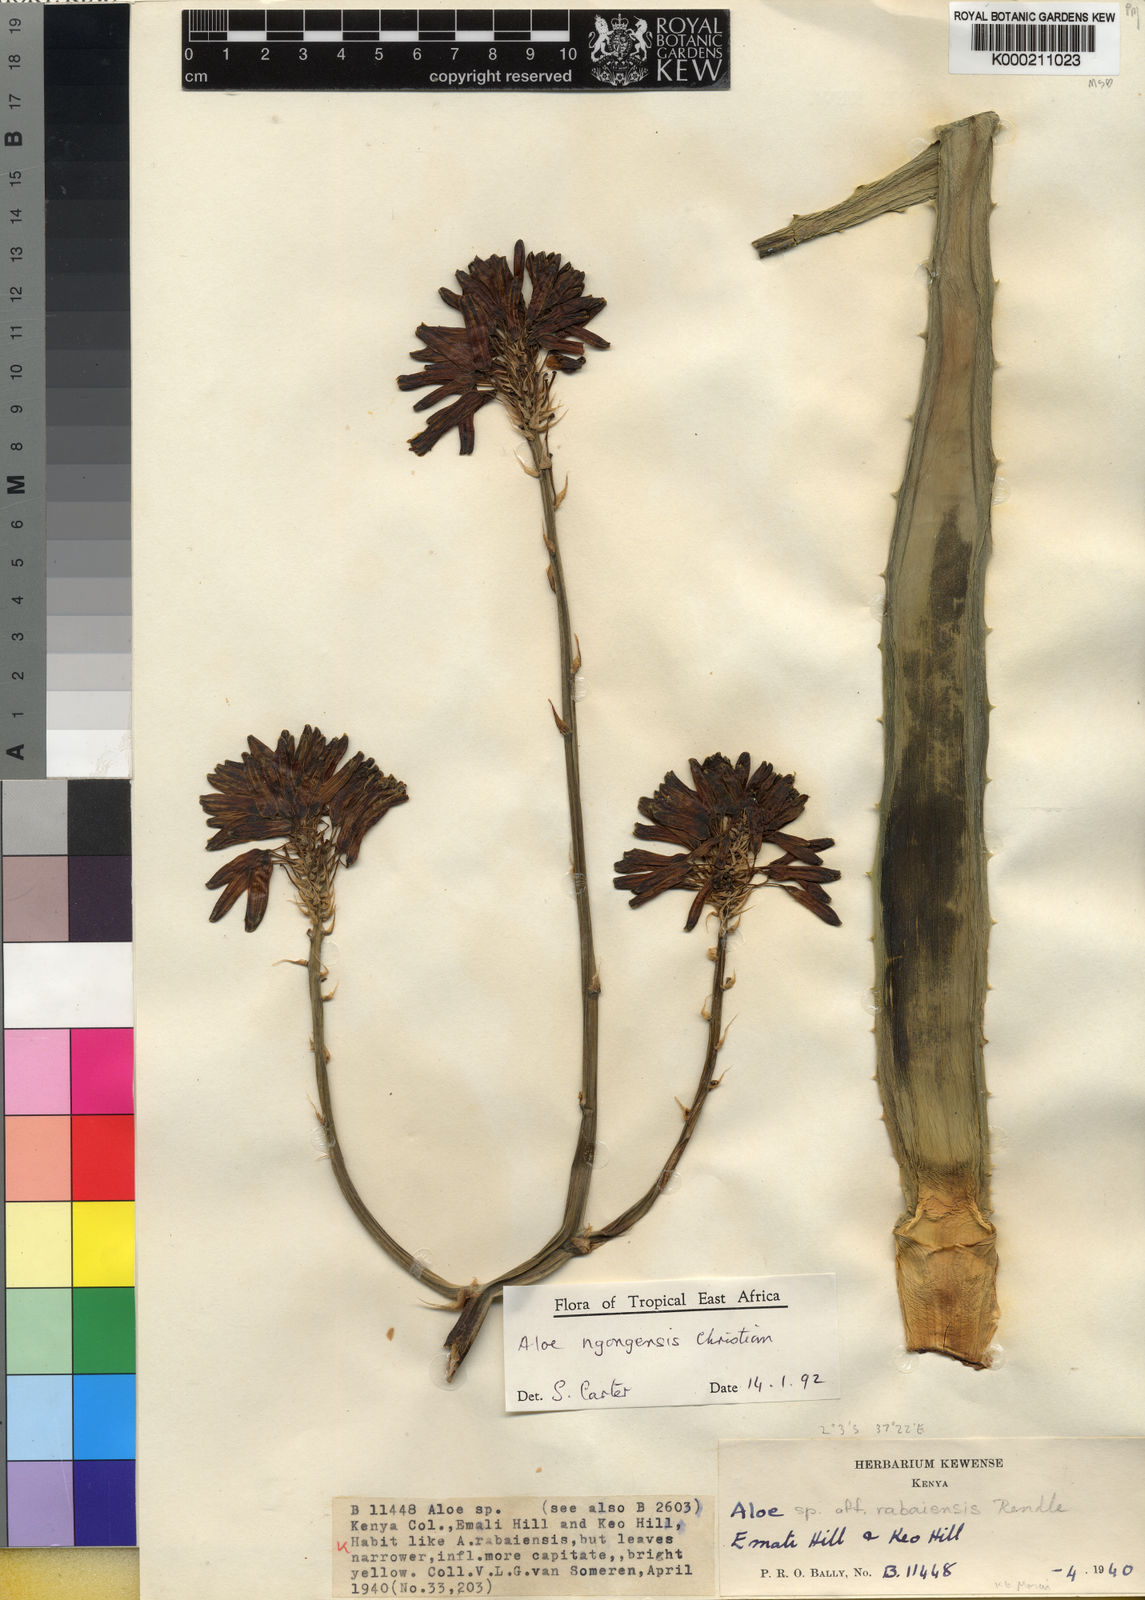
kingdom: Plantae
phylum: Tracheophyta
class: Liliopsida
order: Asparagales
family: Asphodelaceae
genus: Aloe
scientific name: Aloe ngongensis
